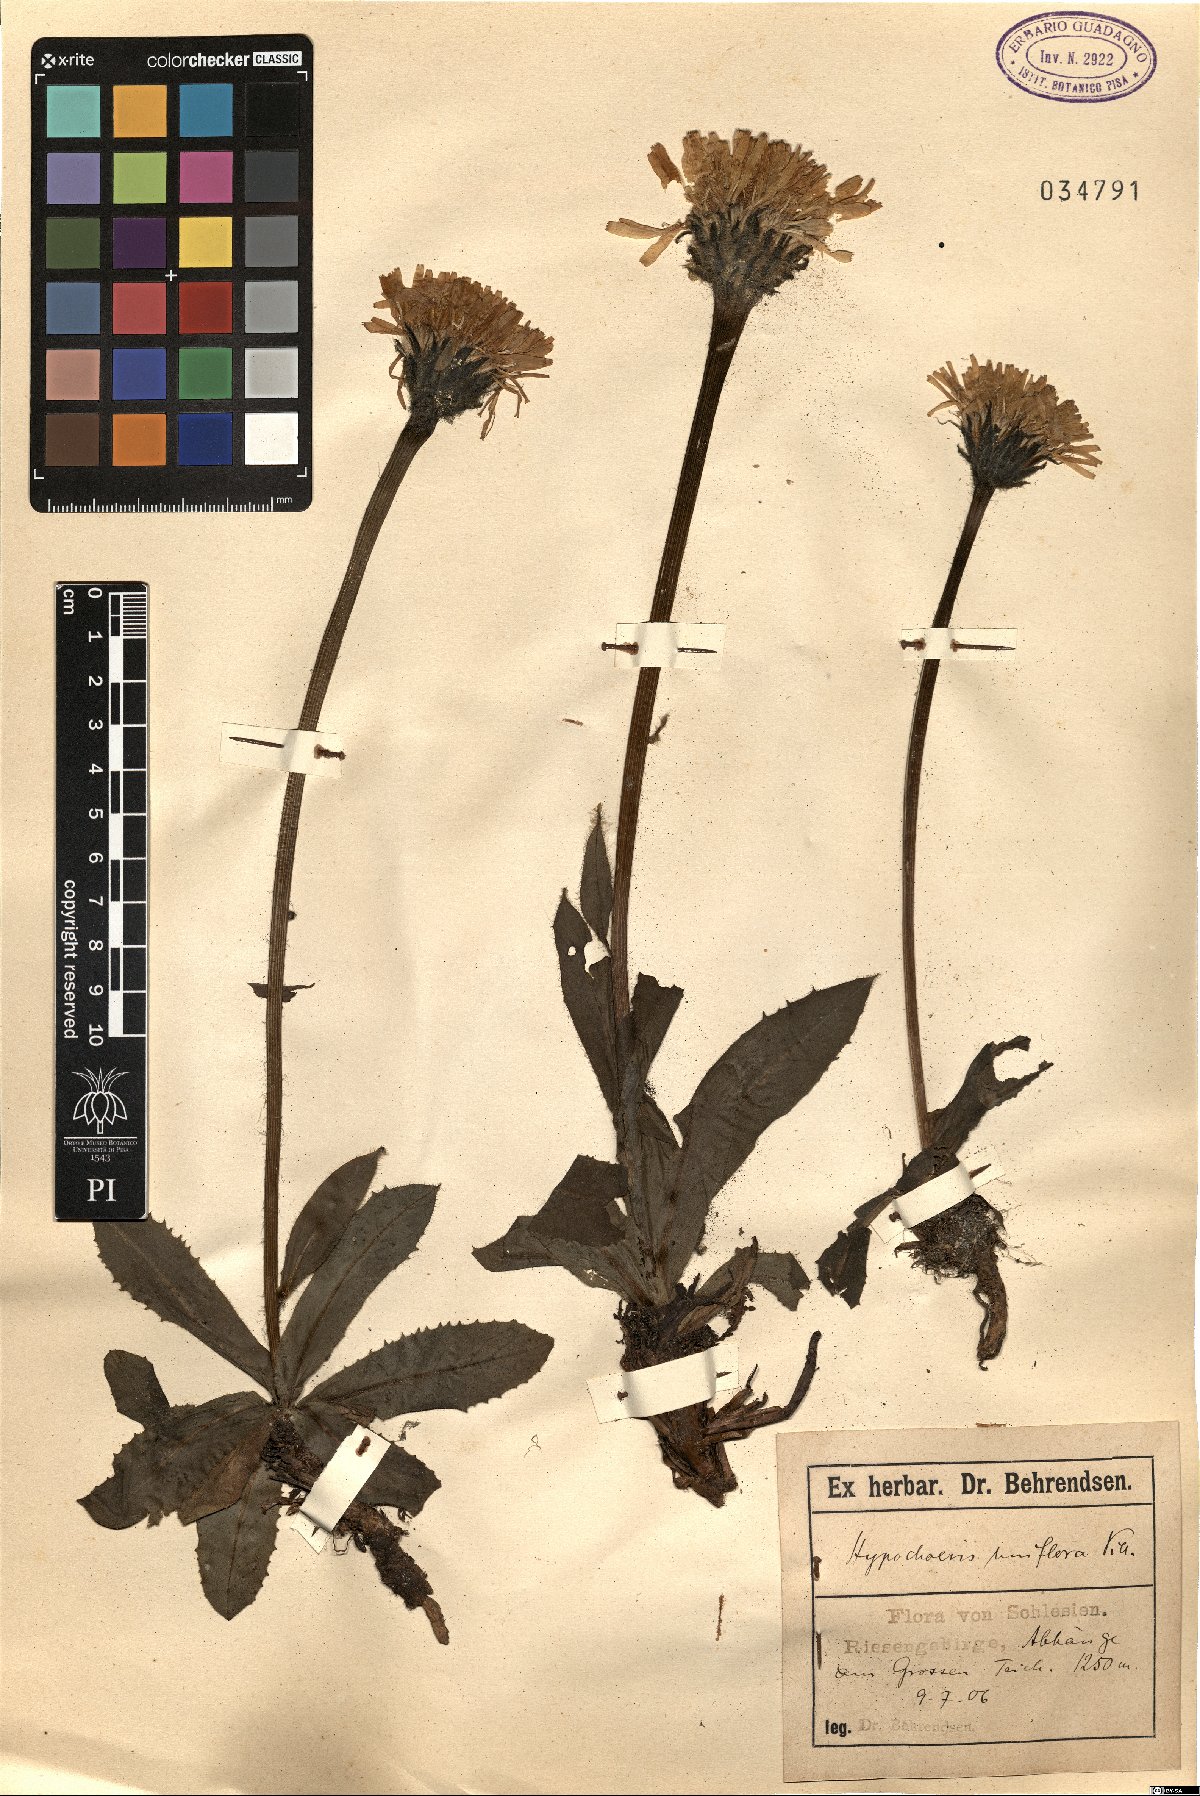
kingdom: Plantae
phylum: Tracheophyta
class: Magnoliopsida
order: Asterales
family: Asteraceae
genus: Trommsdorffia
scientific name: Trommsdorffia uniflora
